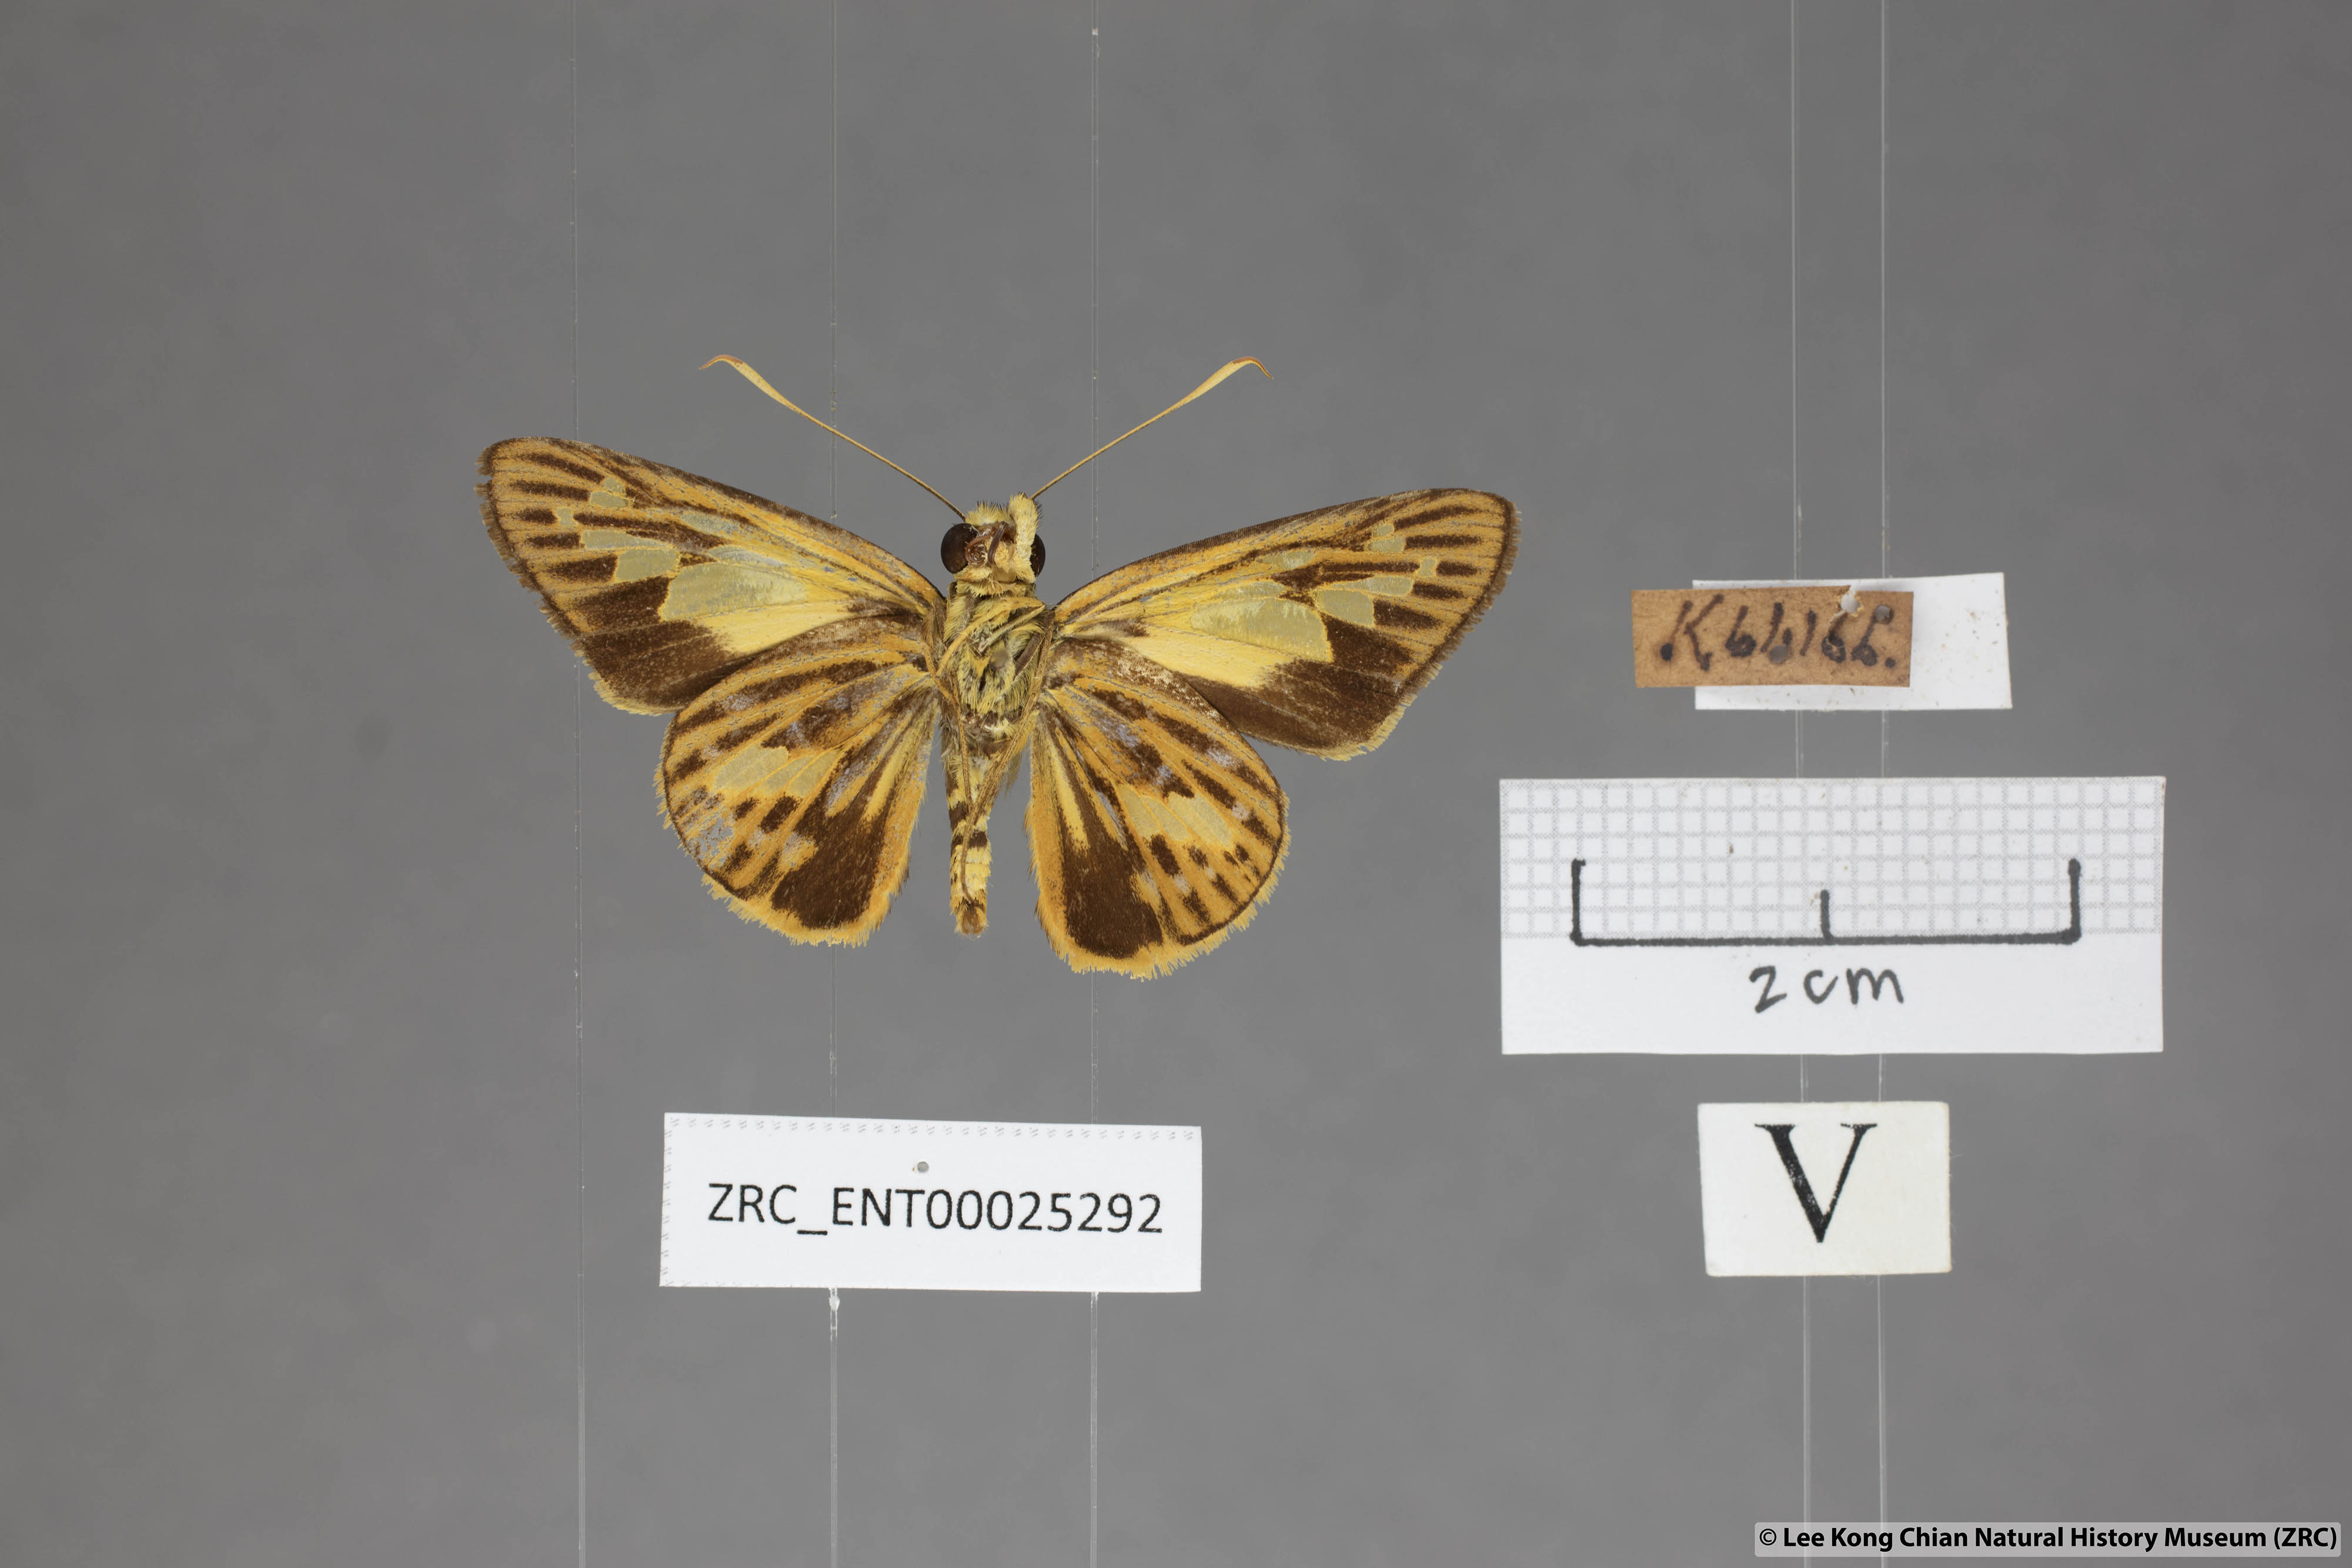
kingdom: Animalia
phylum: Arthropoda
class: Insecta
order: Lepidoptera
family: Hesperiidae
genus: Pyroneura
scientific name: Pyroneura
